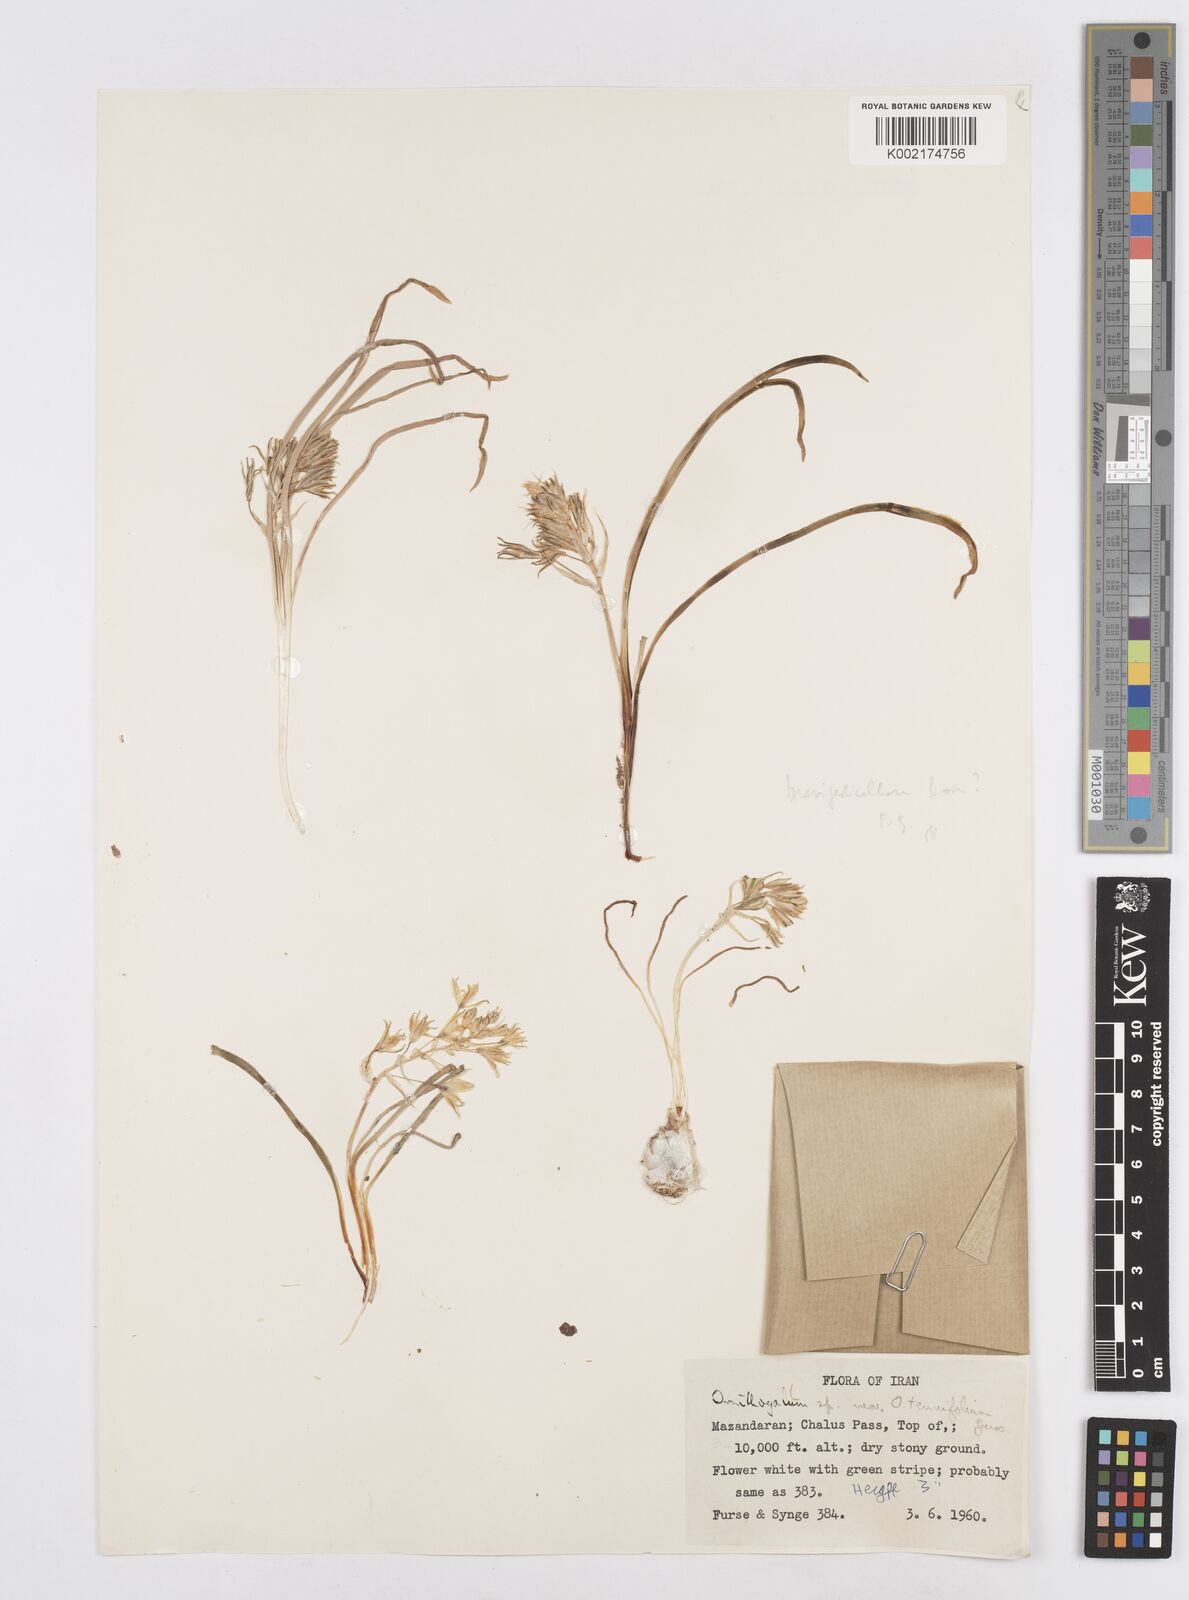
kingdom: Plantae
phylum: Tracheophyta
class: Liliopsida
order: Asparagales
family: Asparagaceae
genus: Ornithogalum
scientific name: Ornithogalum
